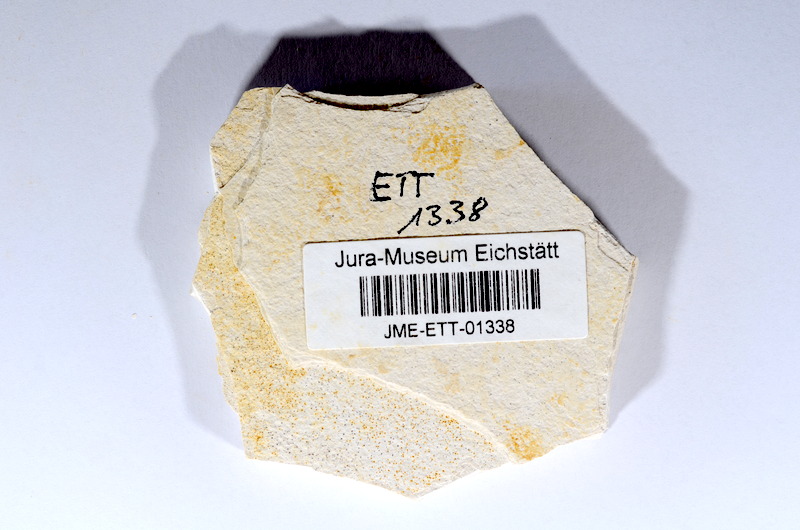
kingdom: Animalia
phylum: Chordata
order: Salmoniformes
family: Orthogonikleithridae
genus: Orthogonikleithrus
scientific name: Orthogonikleithrus hoelli
